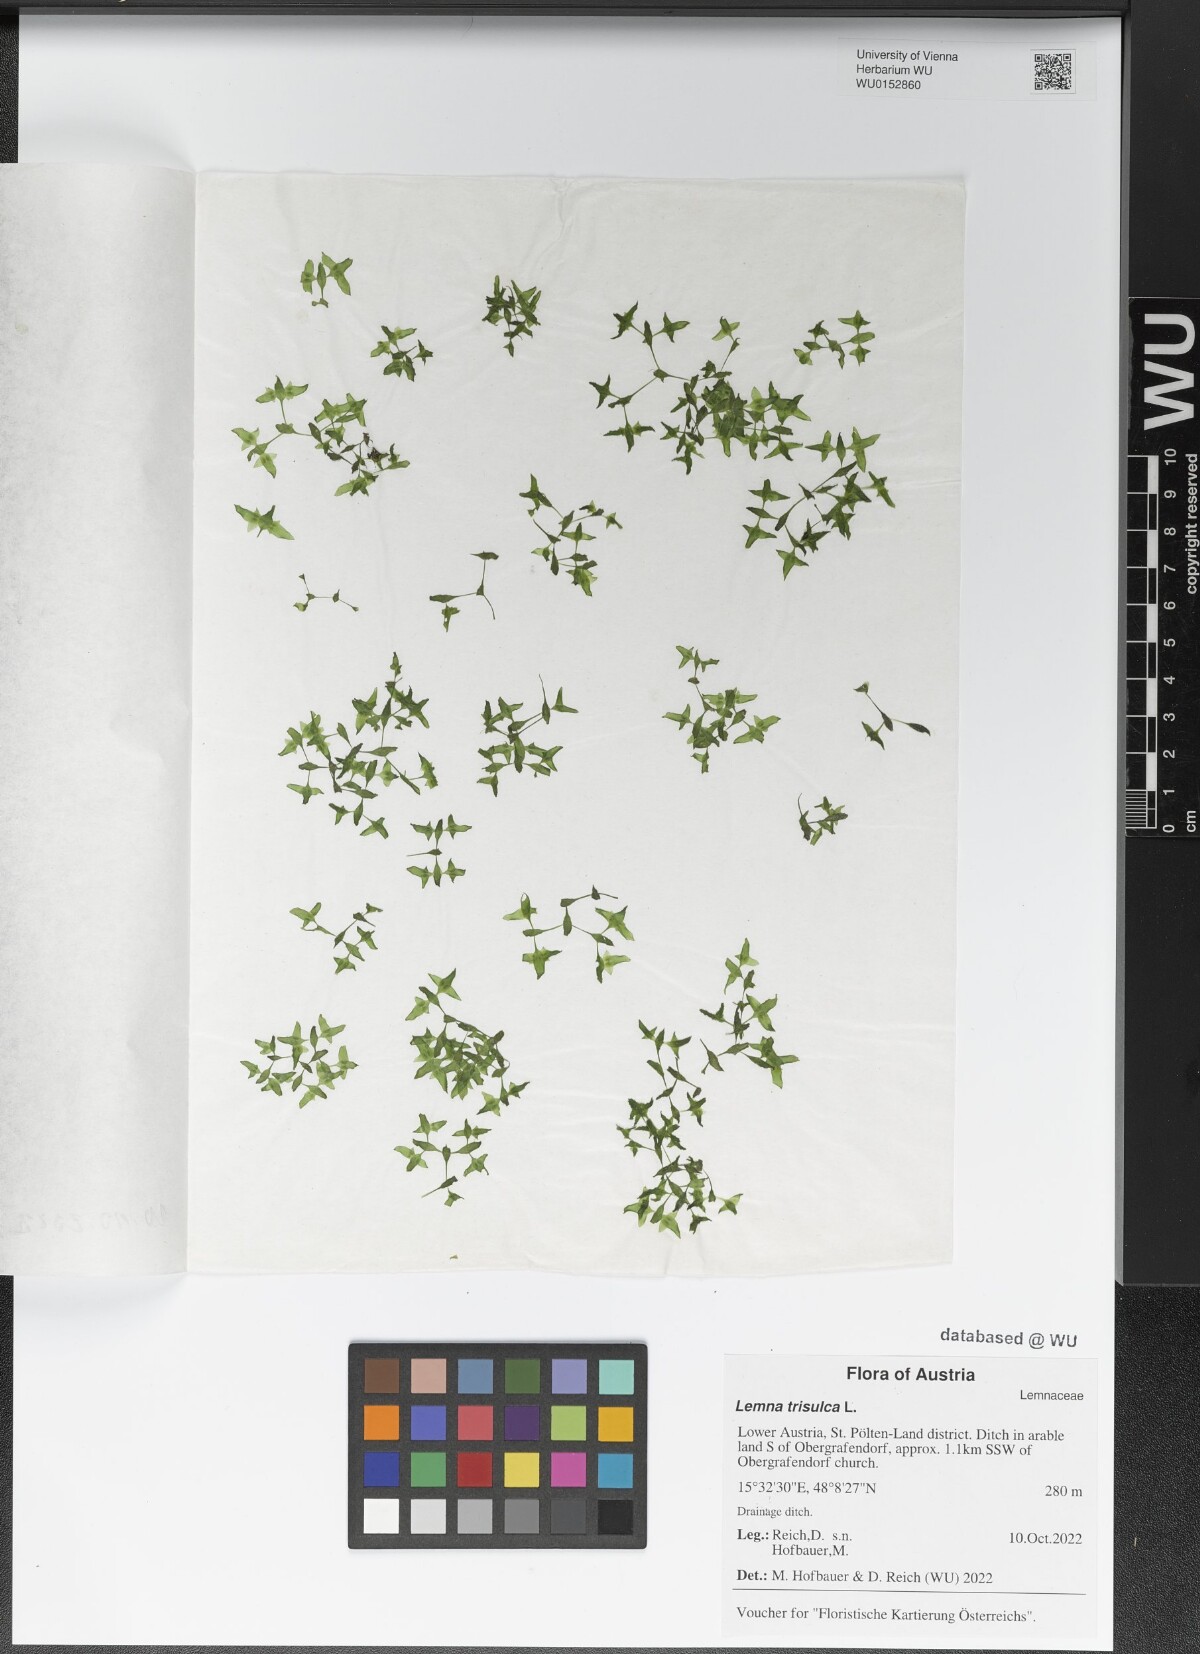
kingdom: Plantae
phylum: Tracheophyta
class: Liliopsida
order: Alismatales
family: Araceae
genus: Lemna
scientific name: Lemna trisulca
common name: Ivy-leaved duckweed
